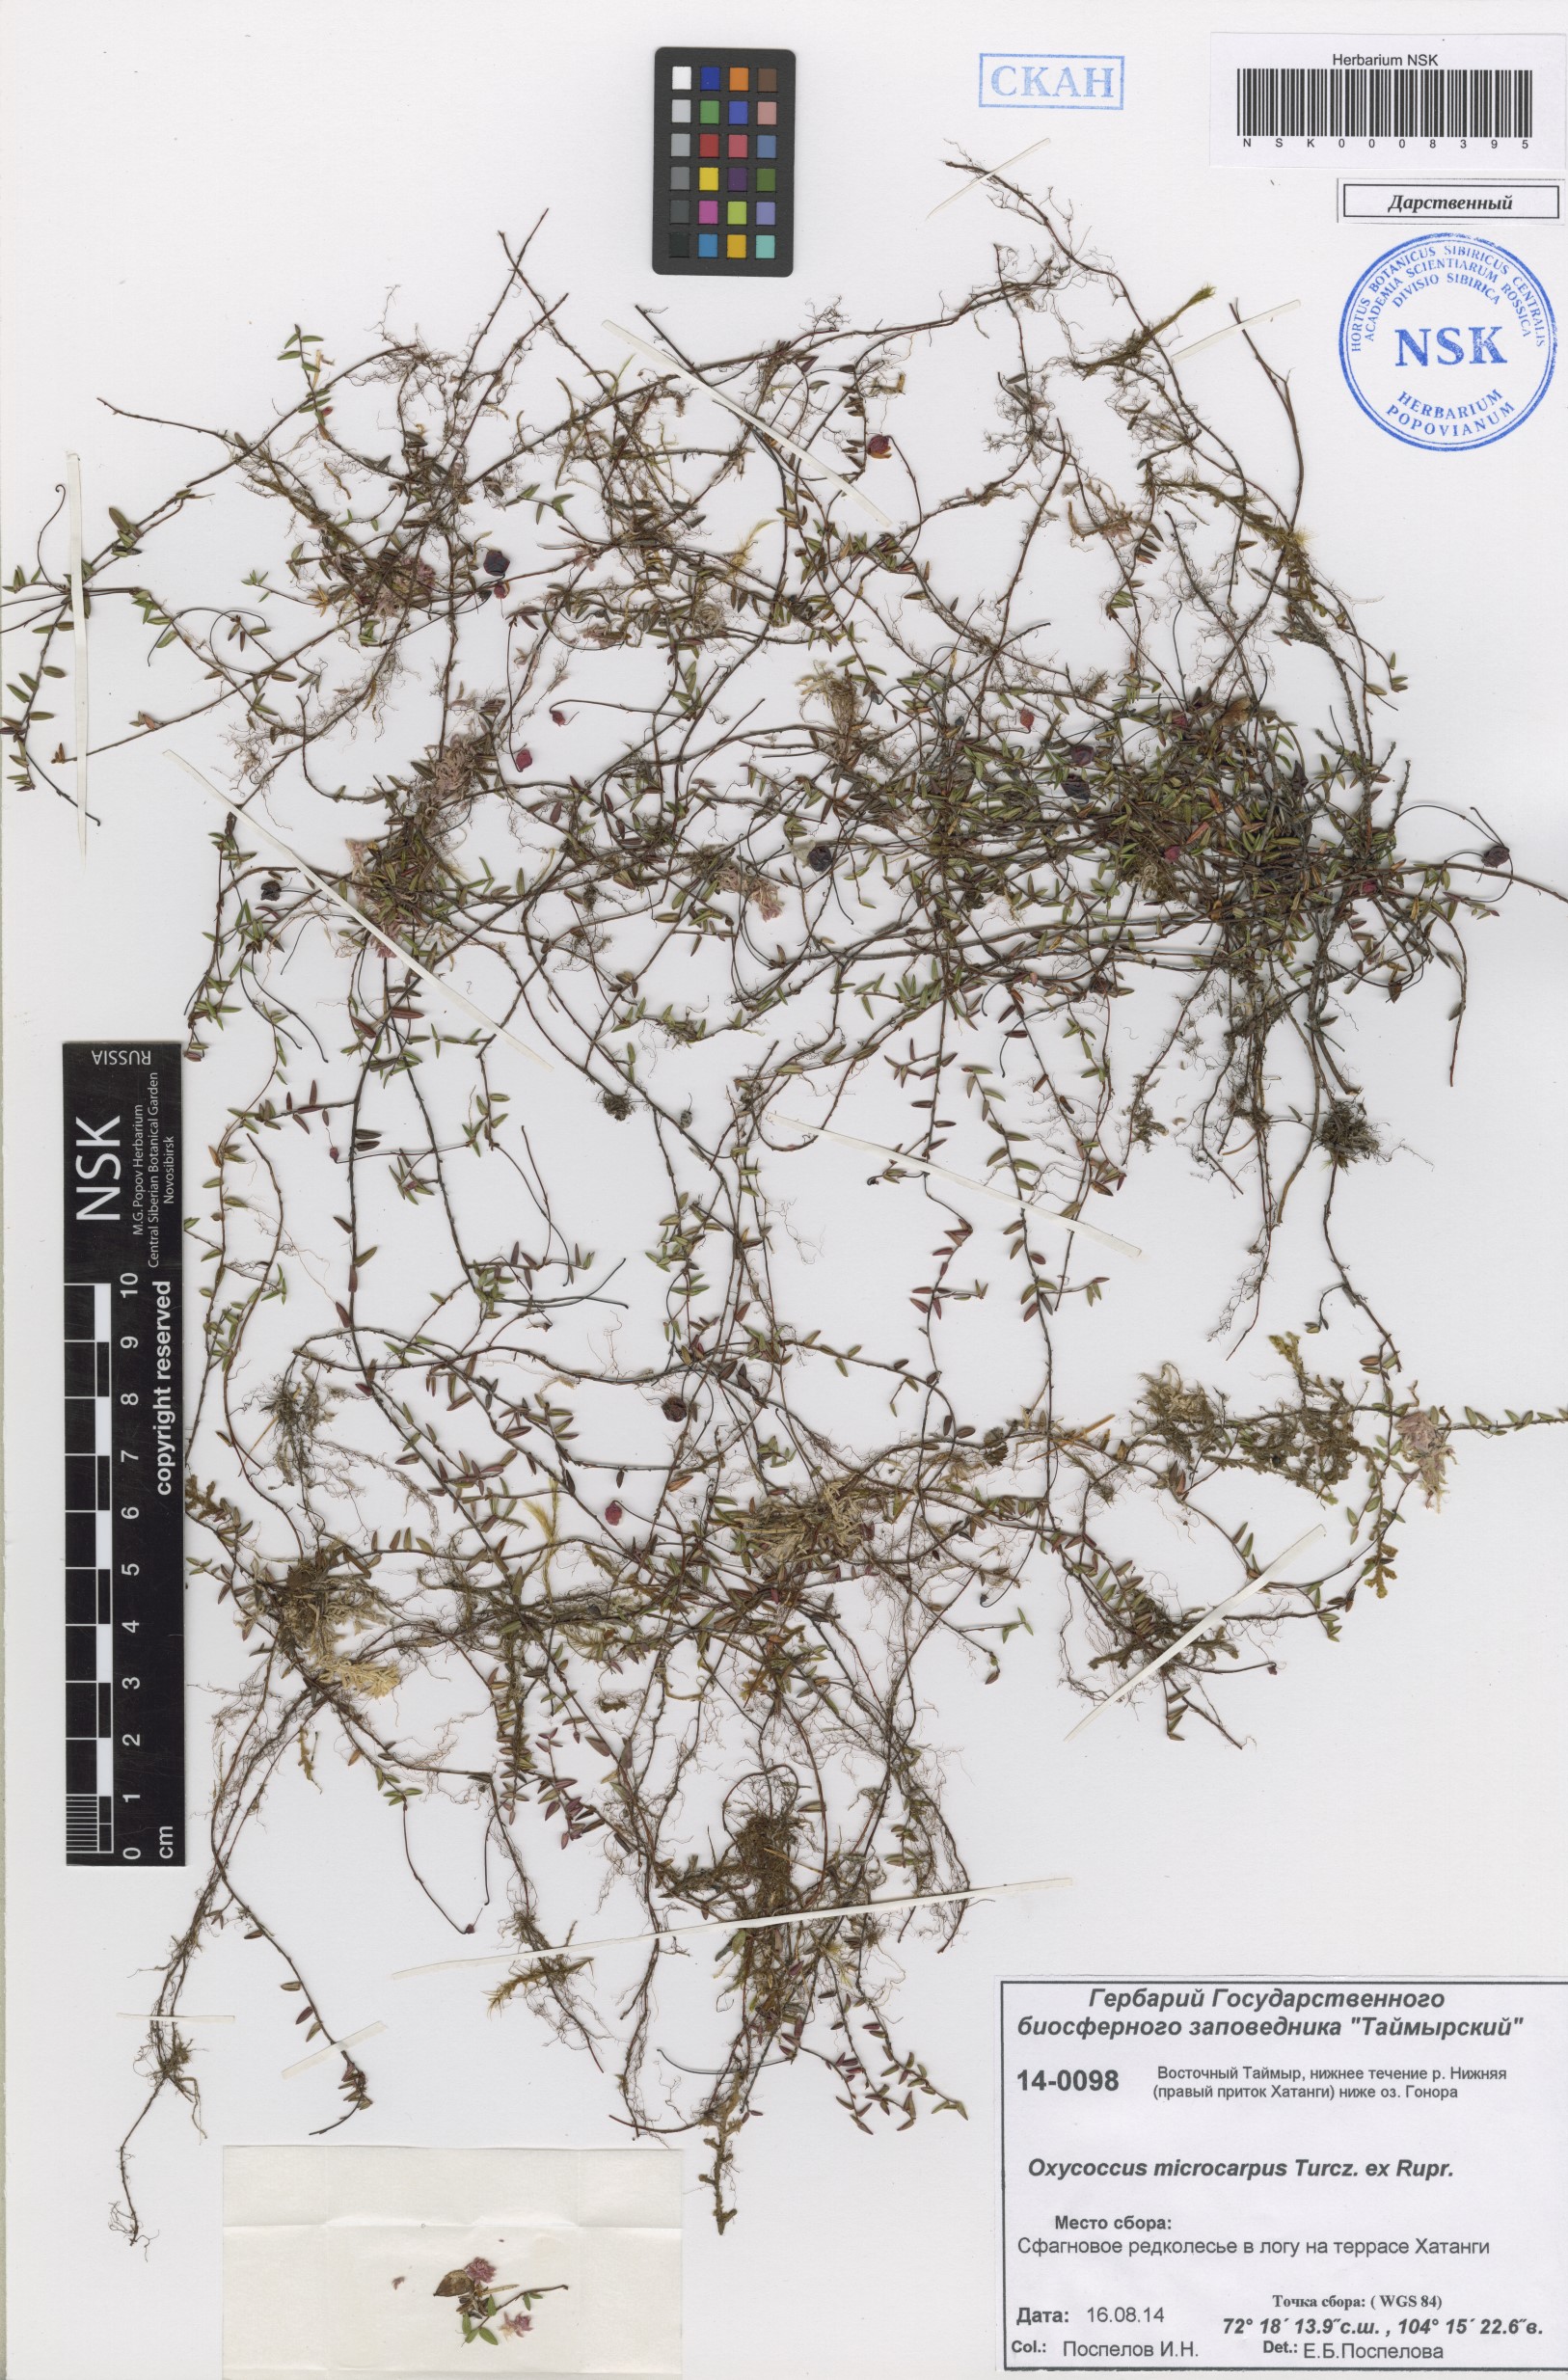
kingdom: Plantae
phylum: Tracheophyta
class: Magnoliopsida
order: Ericales
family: Ericaceae
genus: Vaccinium
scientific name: Vaccinium microcarpum
